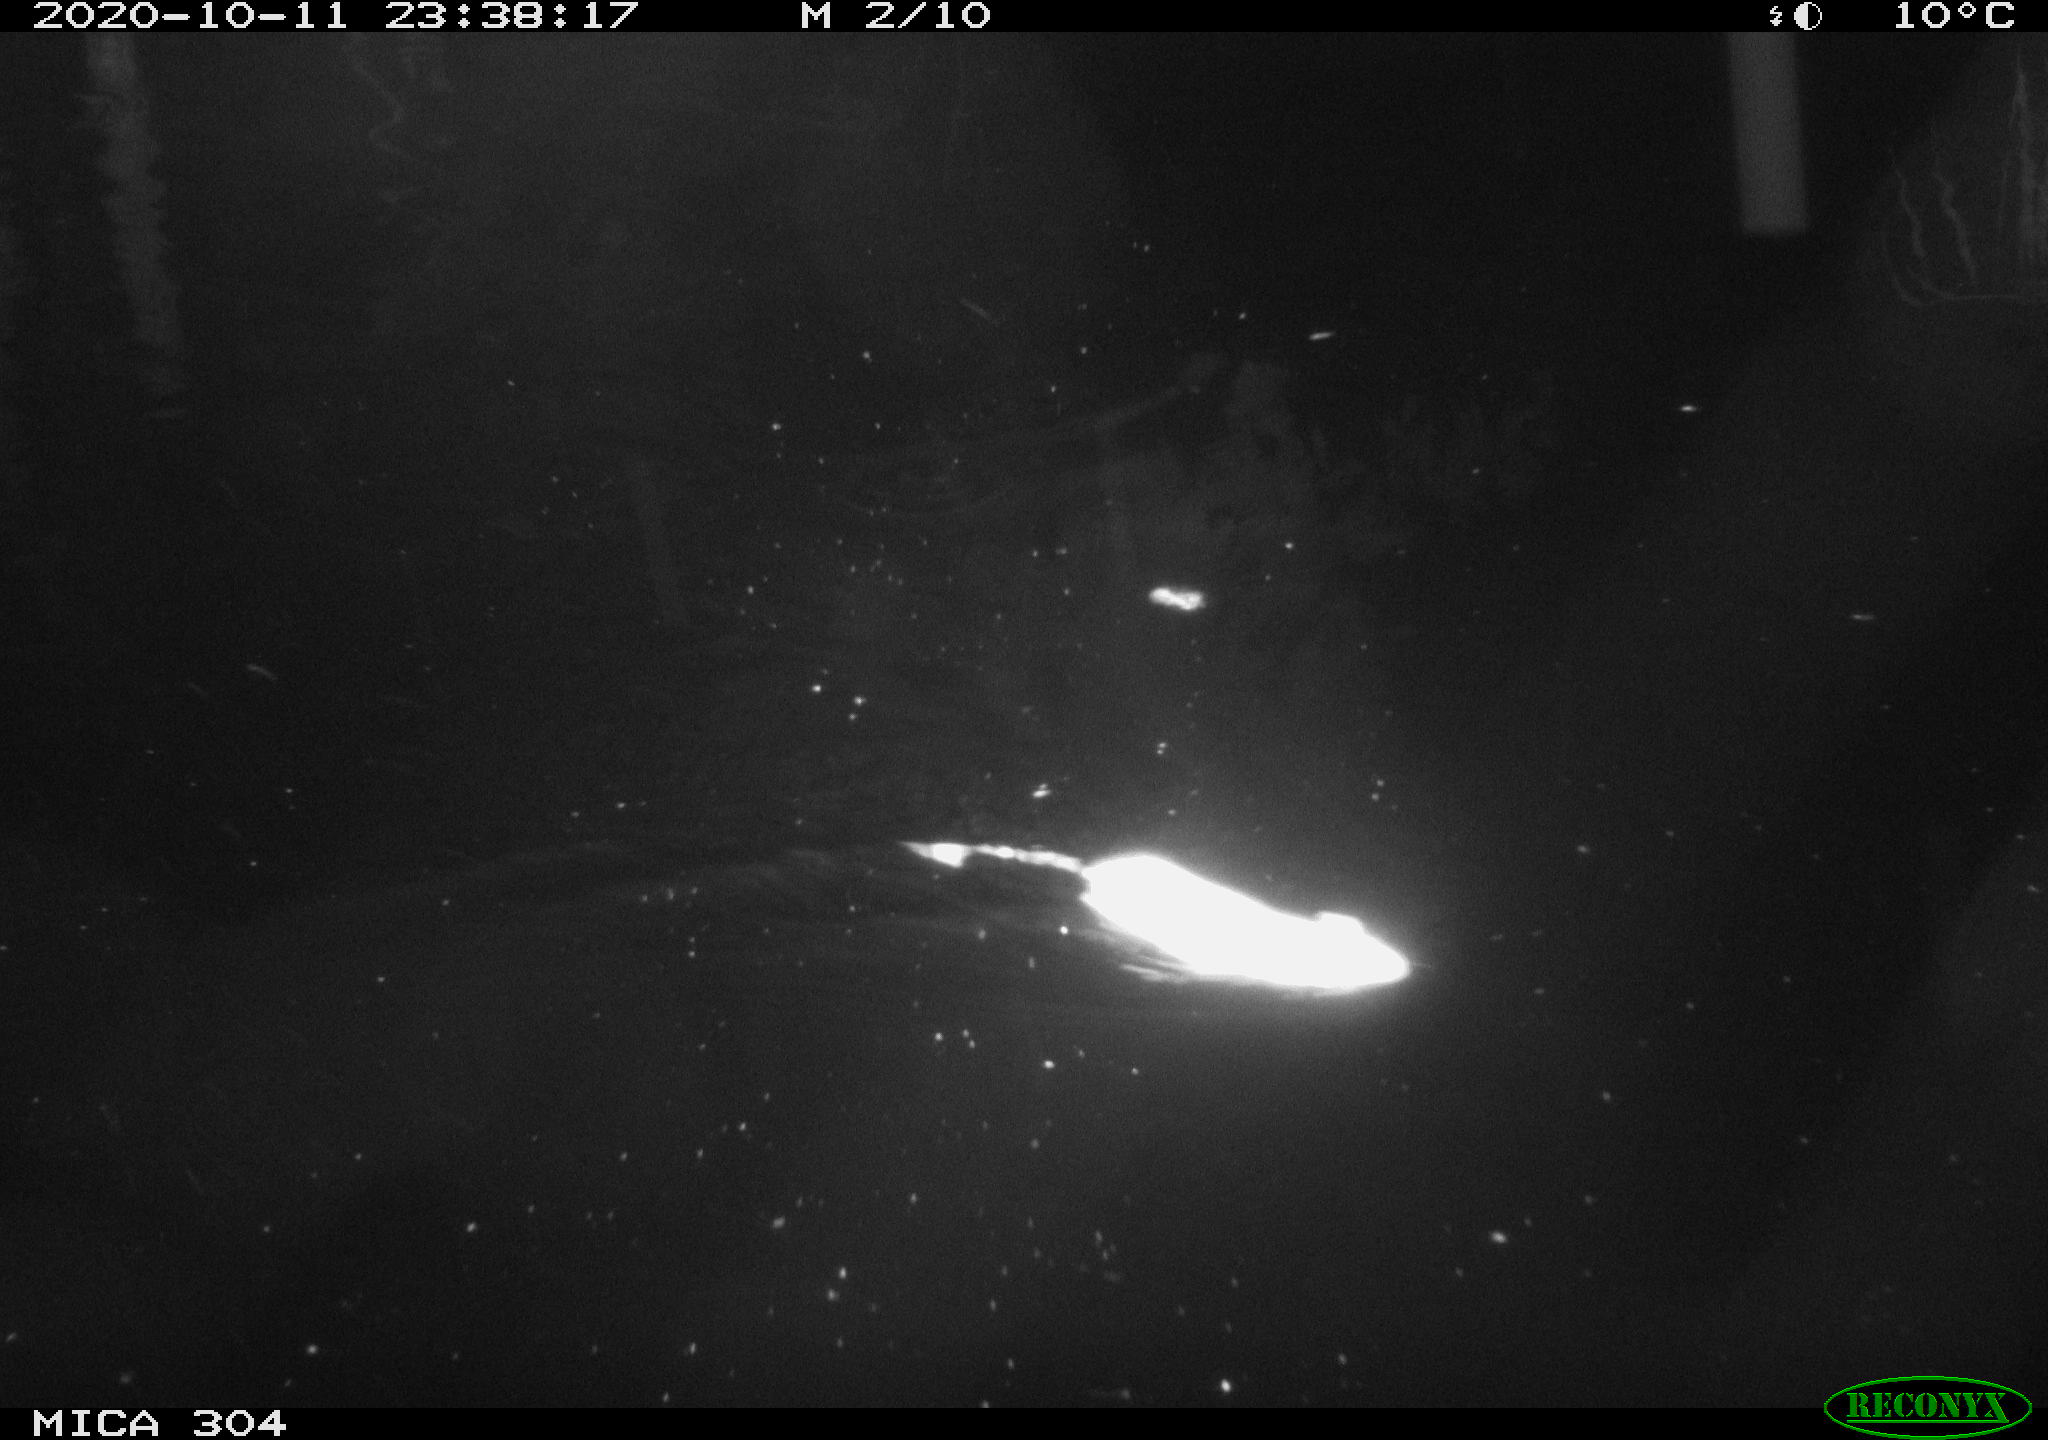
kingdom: Animalia
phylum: Chordata
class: Mammalia
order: Rodentia
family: Muridae
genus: Rattus
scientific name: Rattus norvegicus
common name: Brown rat
